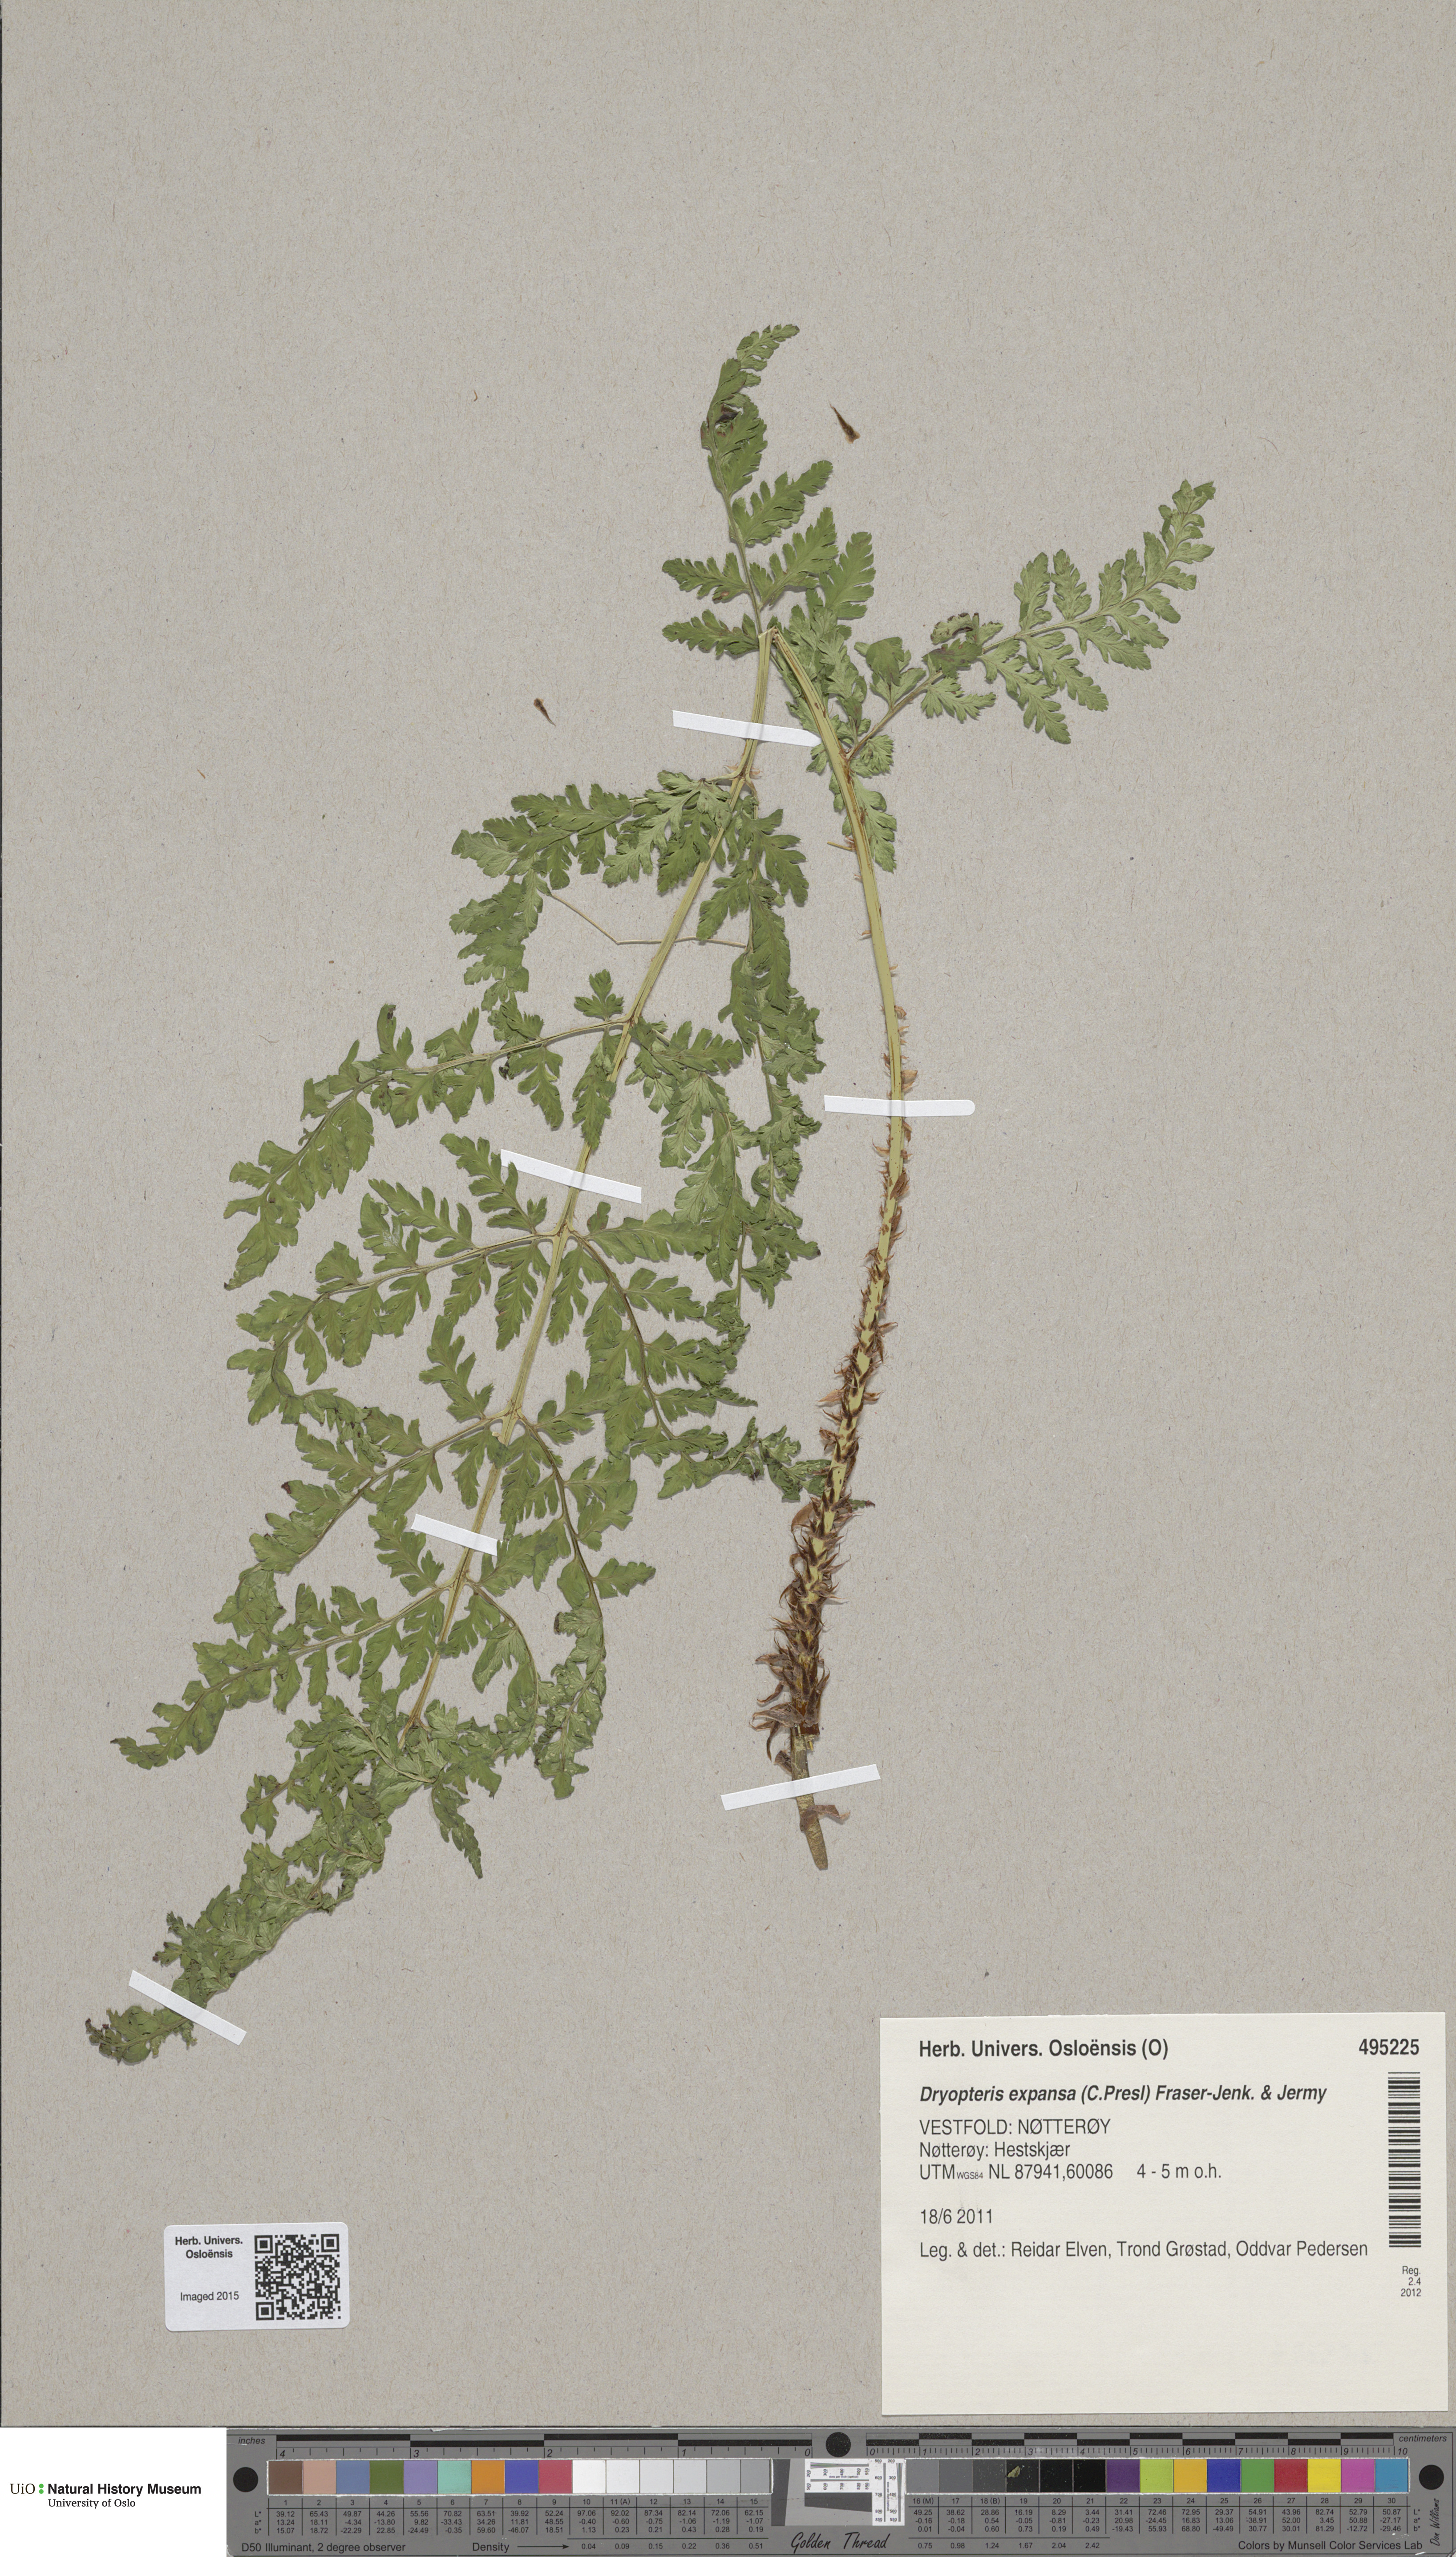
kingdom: Plantae
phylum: Tracheophyta
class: Polypodiopsida
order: Polypodiales
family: Dryopteridaceae
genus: Dryopteris
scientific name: Dryopteris expansa
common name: Northern buckler fern
